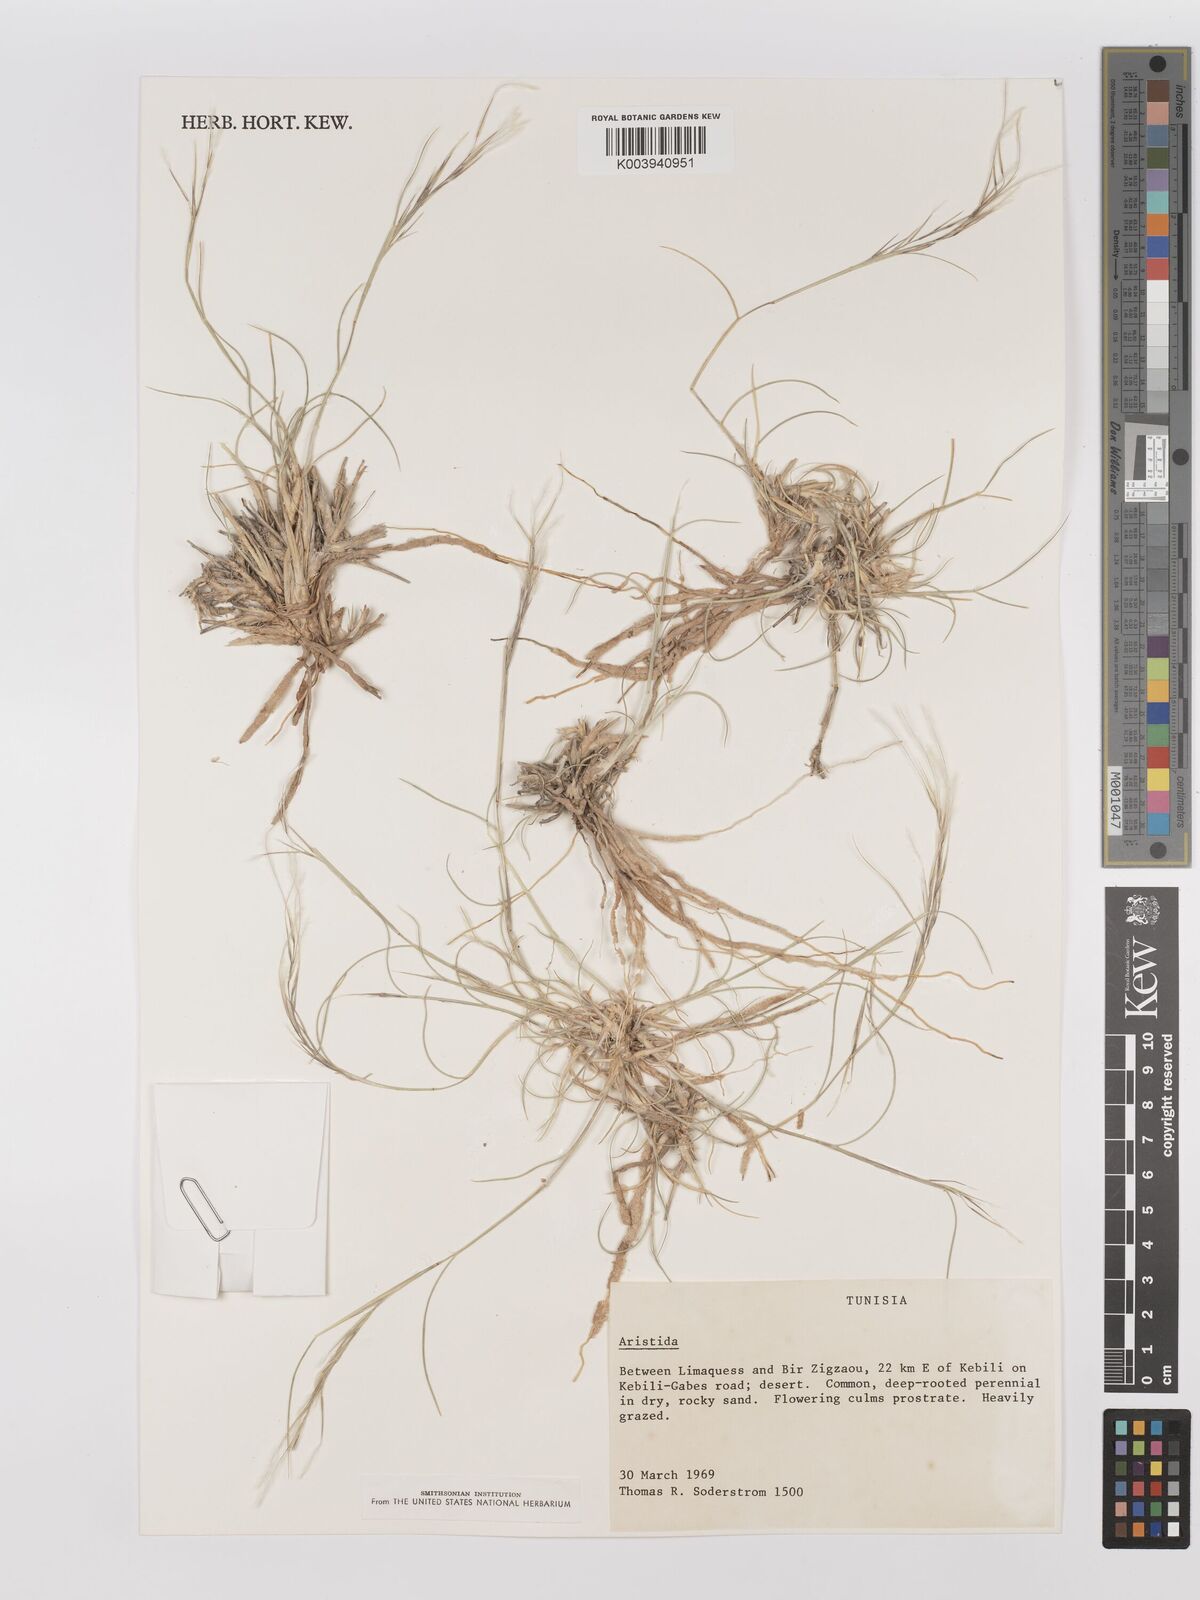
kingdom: Plantae
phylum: Tracheophyta
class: Liliopsida
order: Poales
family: Poaceae
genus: Stipagrostis
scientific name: Stipagrostis plumosa
